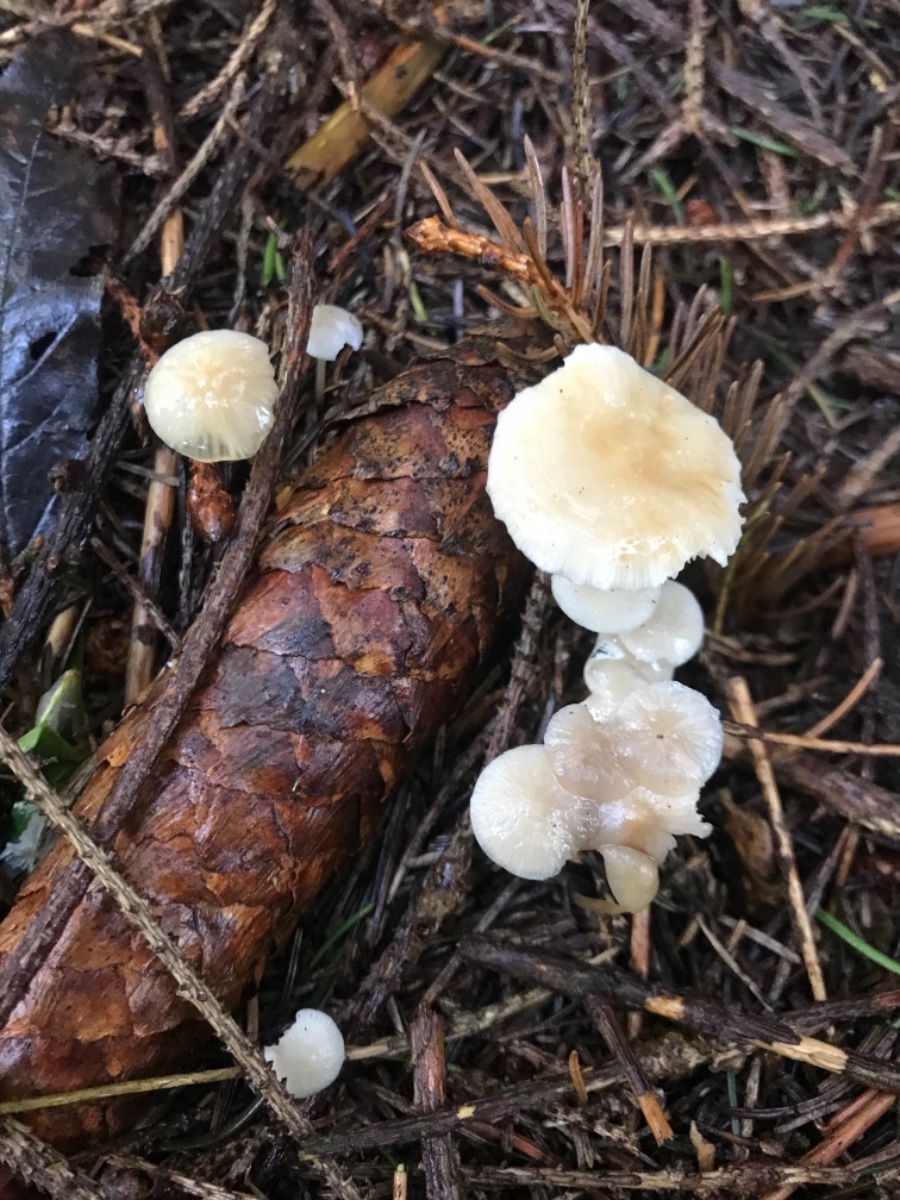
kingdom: Fungi
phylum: Basidiomycota
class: Agaricomycetes
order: Agaricales
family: Physalacriaceae
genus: Strobilurus
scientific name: Strobilurus esculentus
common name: gran-koglehat
